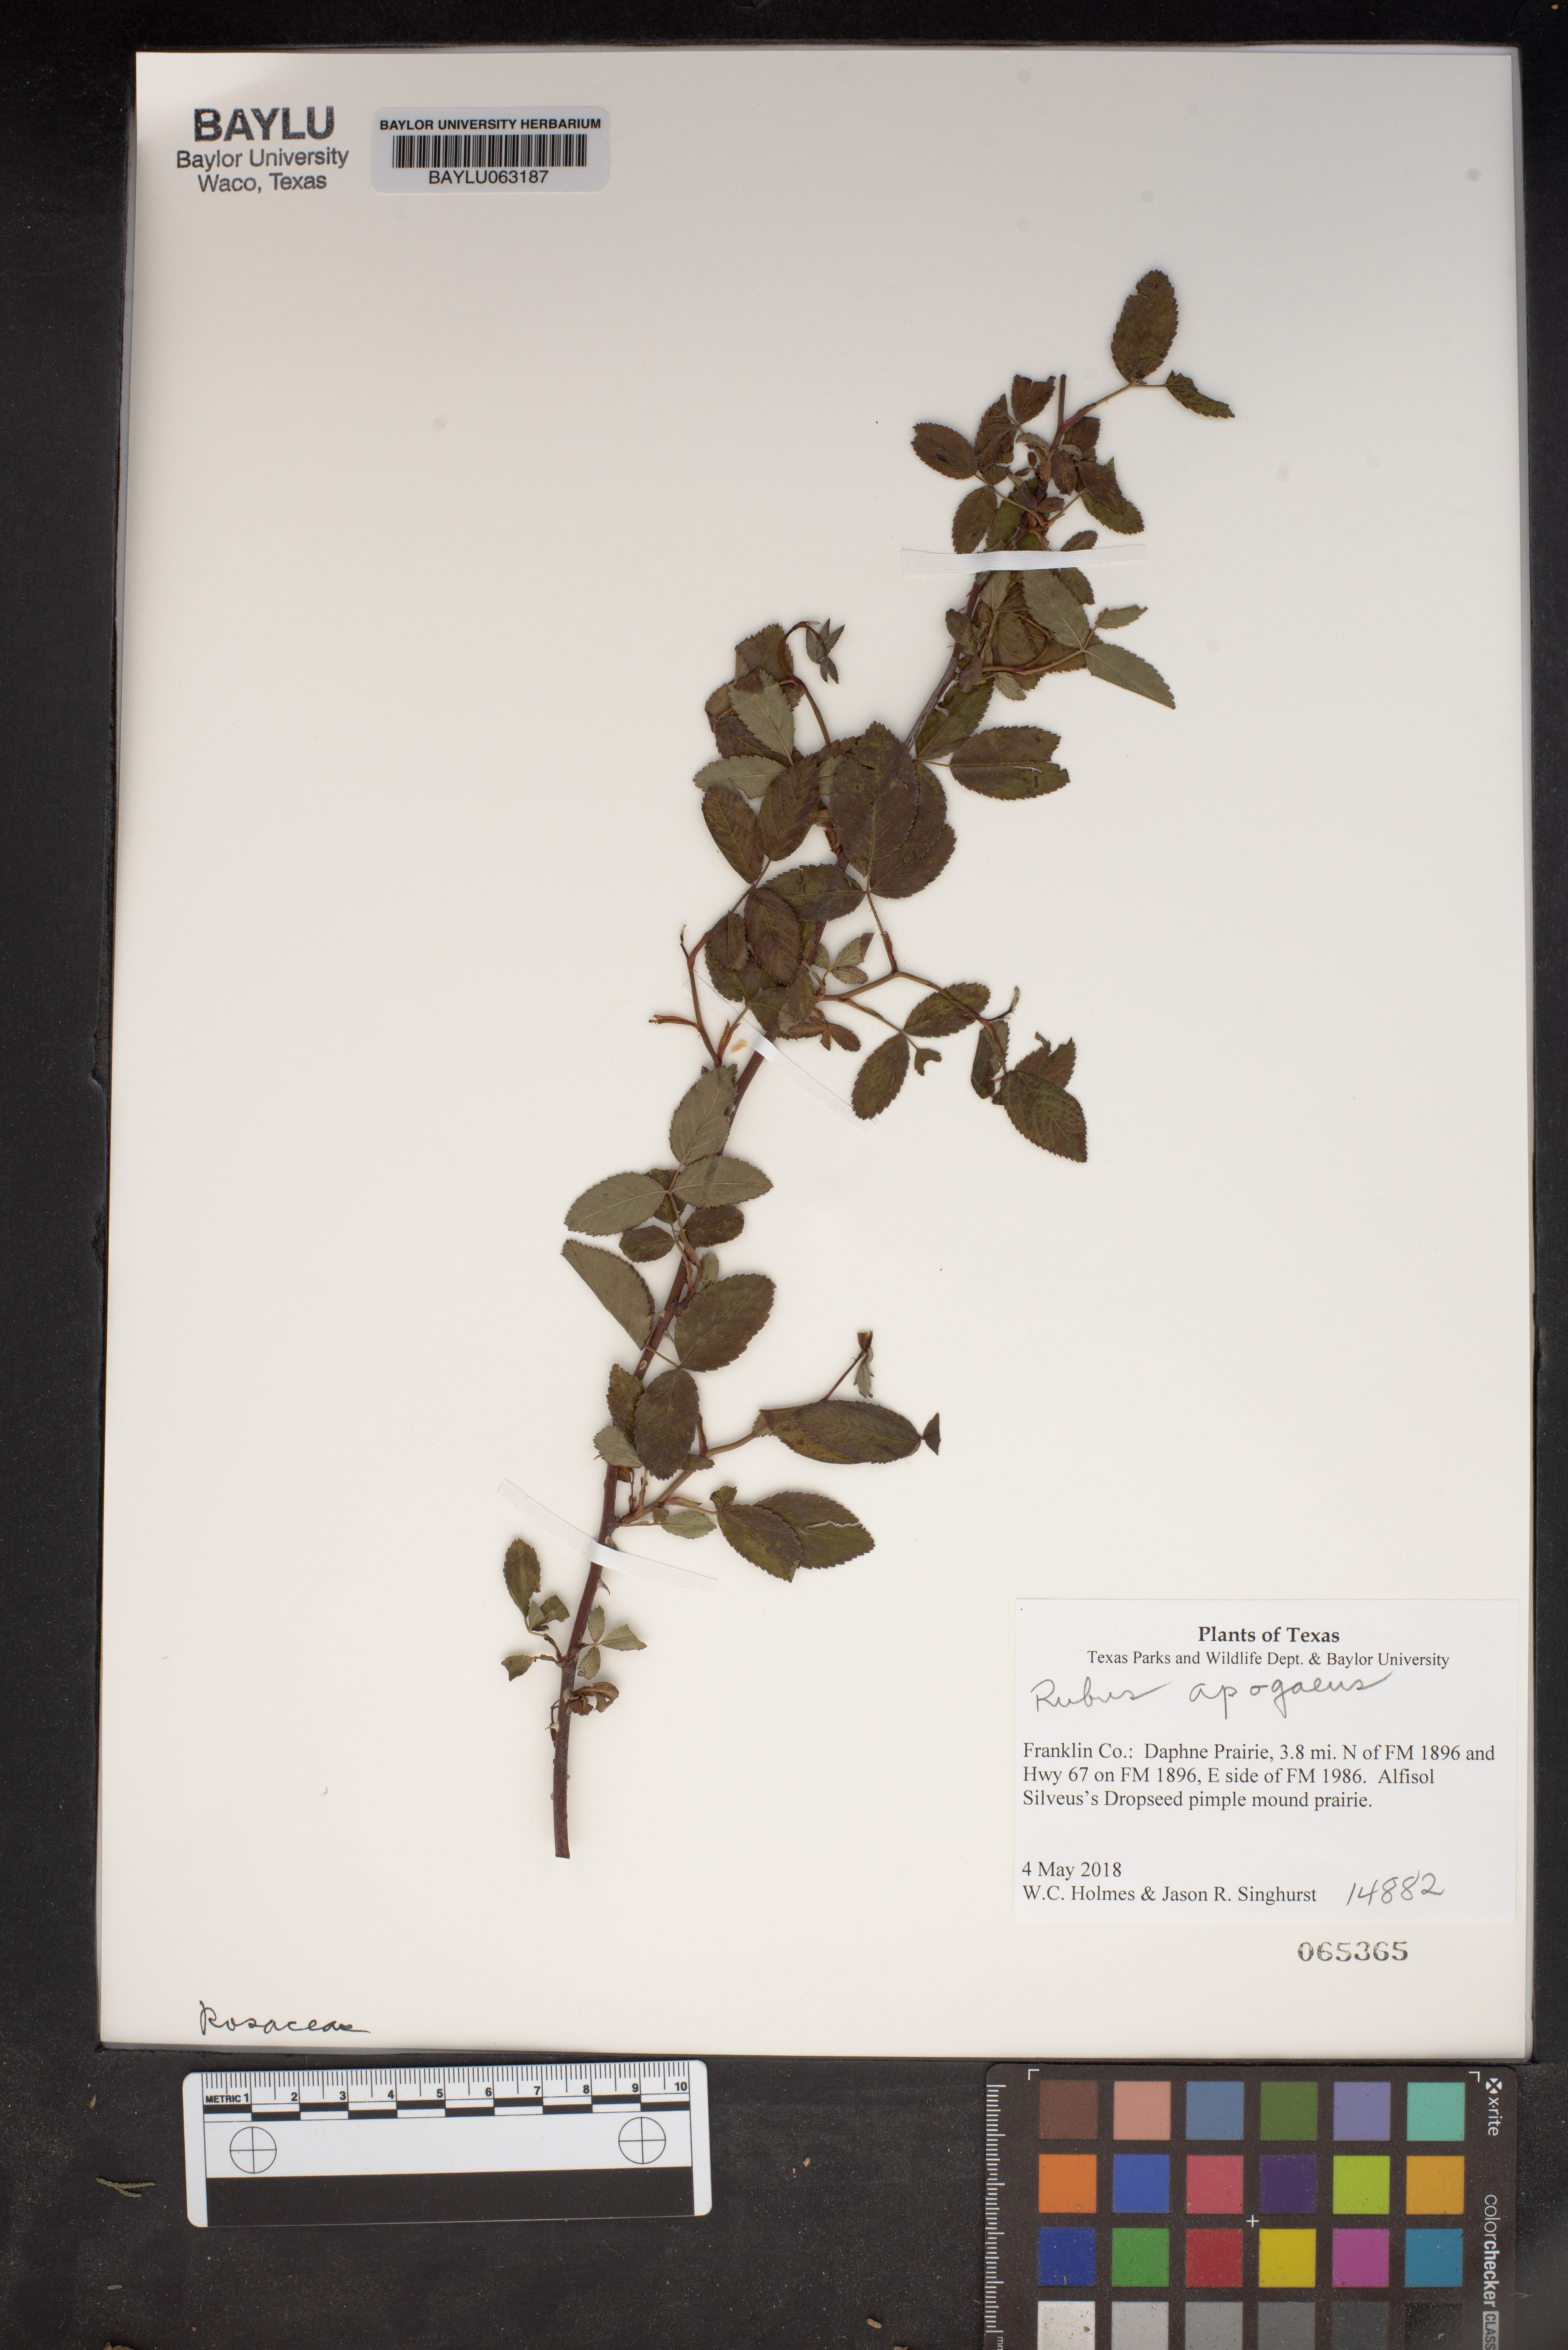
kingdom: Plantae
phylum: Tracheophyta
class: Magnoliopsida
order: Rosales
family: Rosaceae
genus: Rubus
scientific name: Rubus apogaeus
